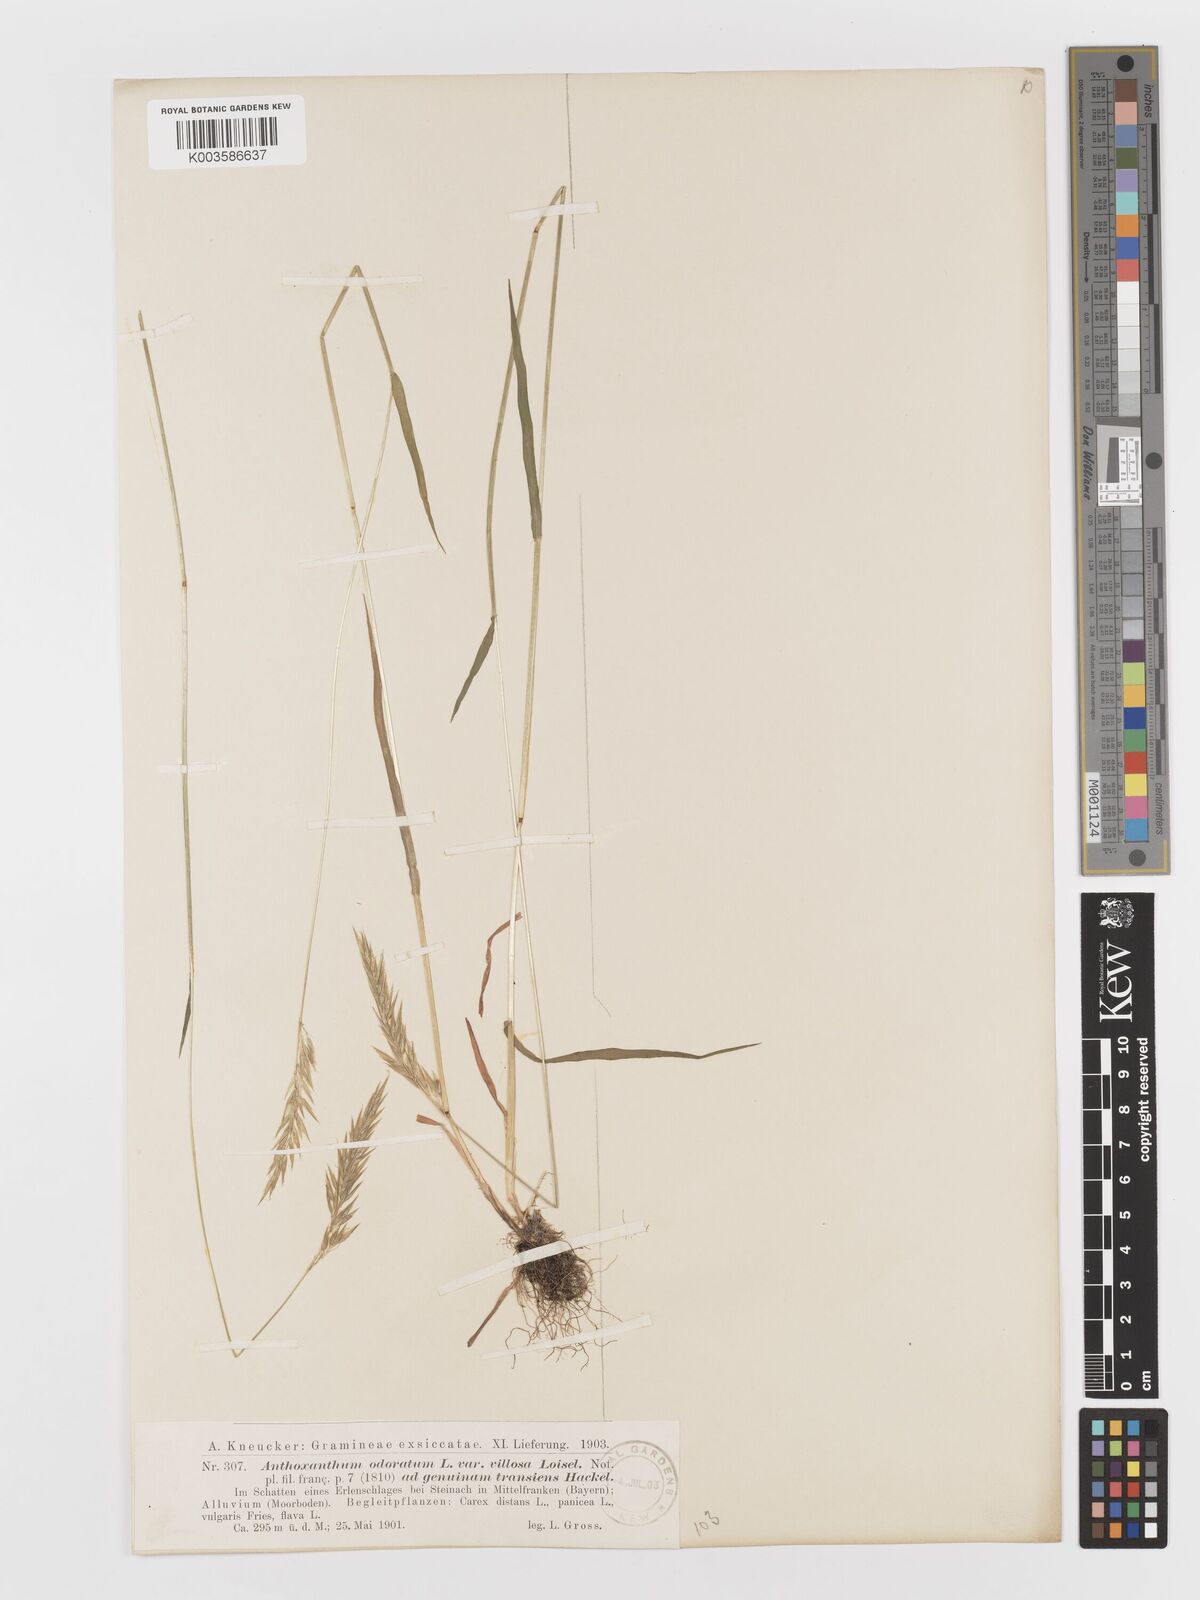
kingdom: Plantae
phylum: Tracheophyta
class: Liliopsida
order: Poales
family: Poaceae
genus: Anthoxanthum
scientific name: Anthoxanthum odoratum
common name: Sweet vernalgrass
